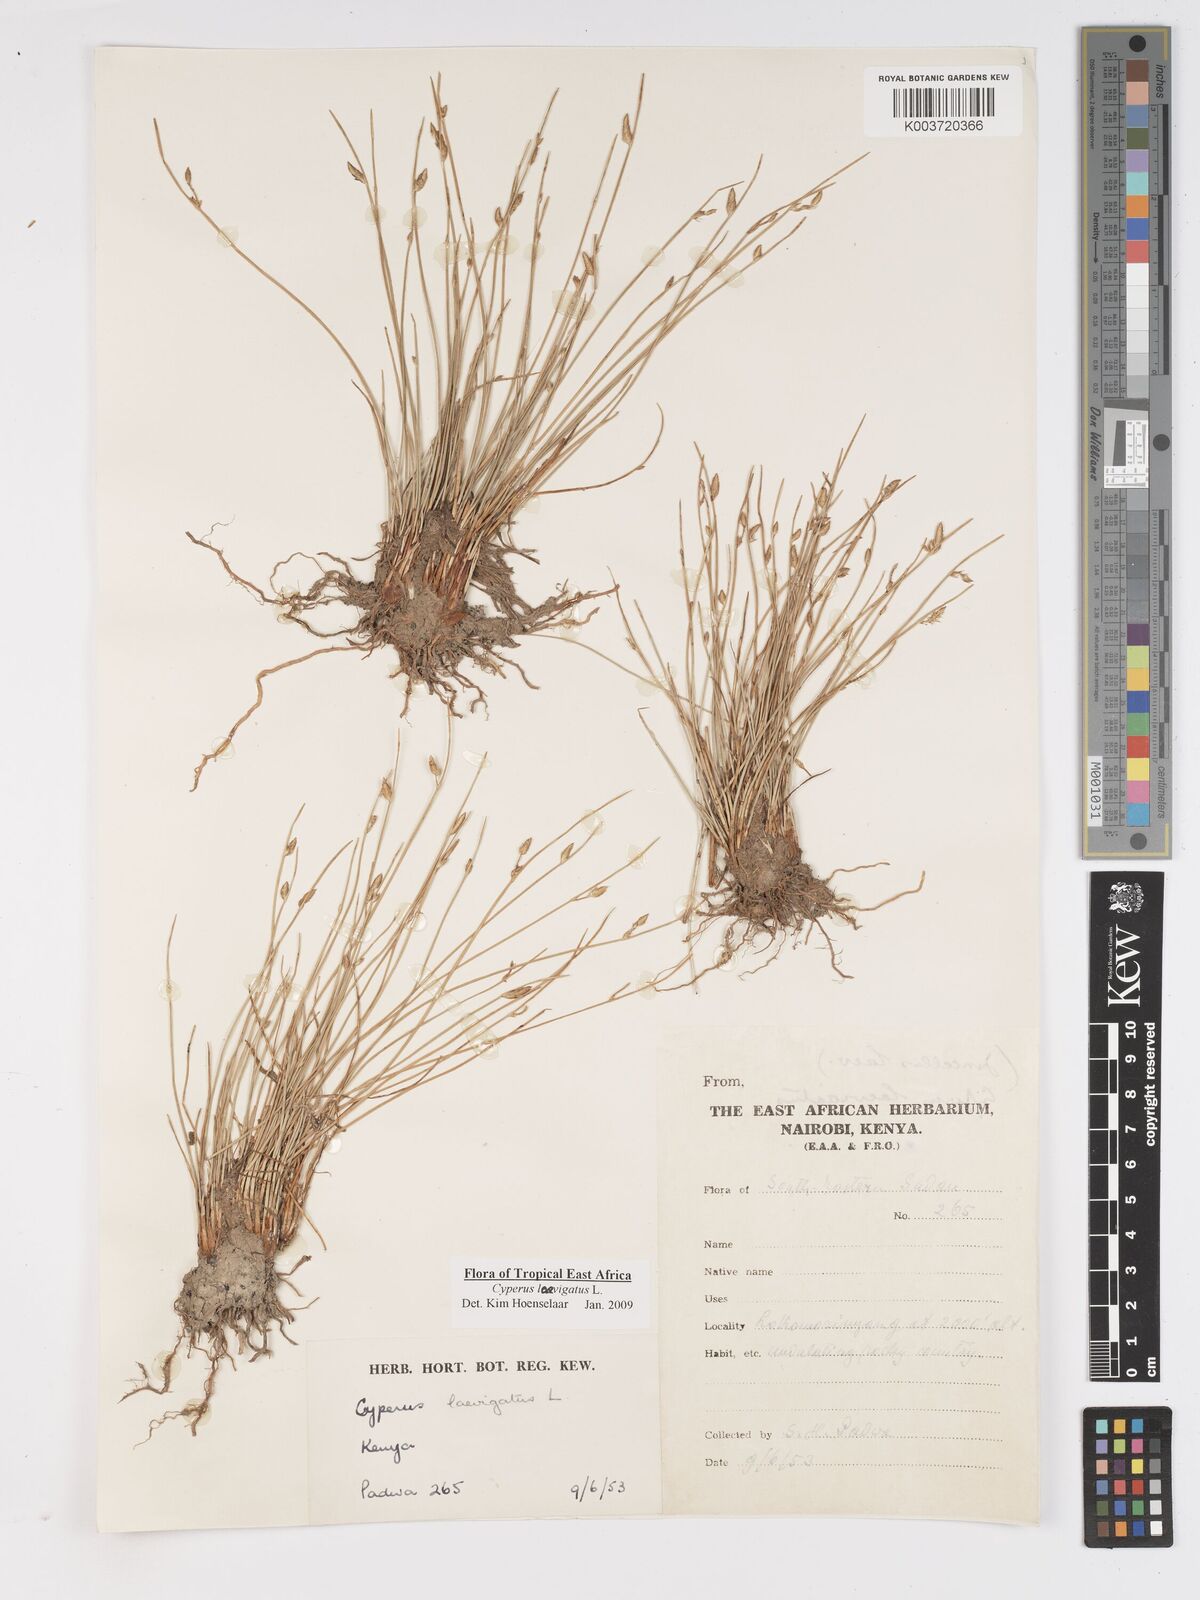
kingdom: Plantae
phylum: Tracheophyta
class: Liliopsida
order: Poales
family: Cyperaceae
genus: Cyperus
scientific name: Cyperus laevigatus
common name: Smooth flat sedge
